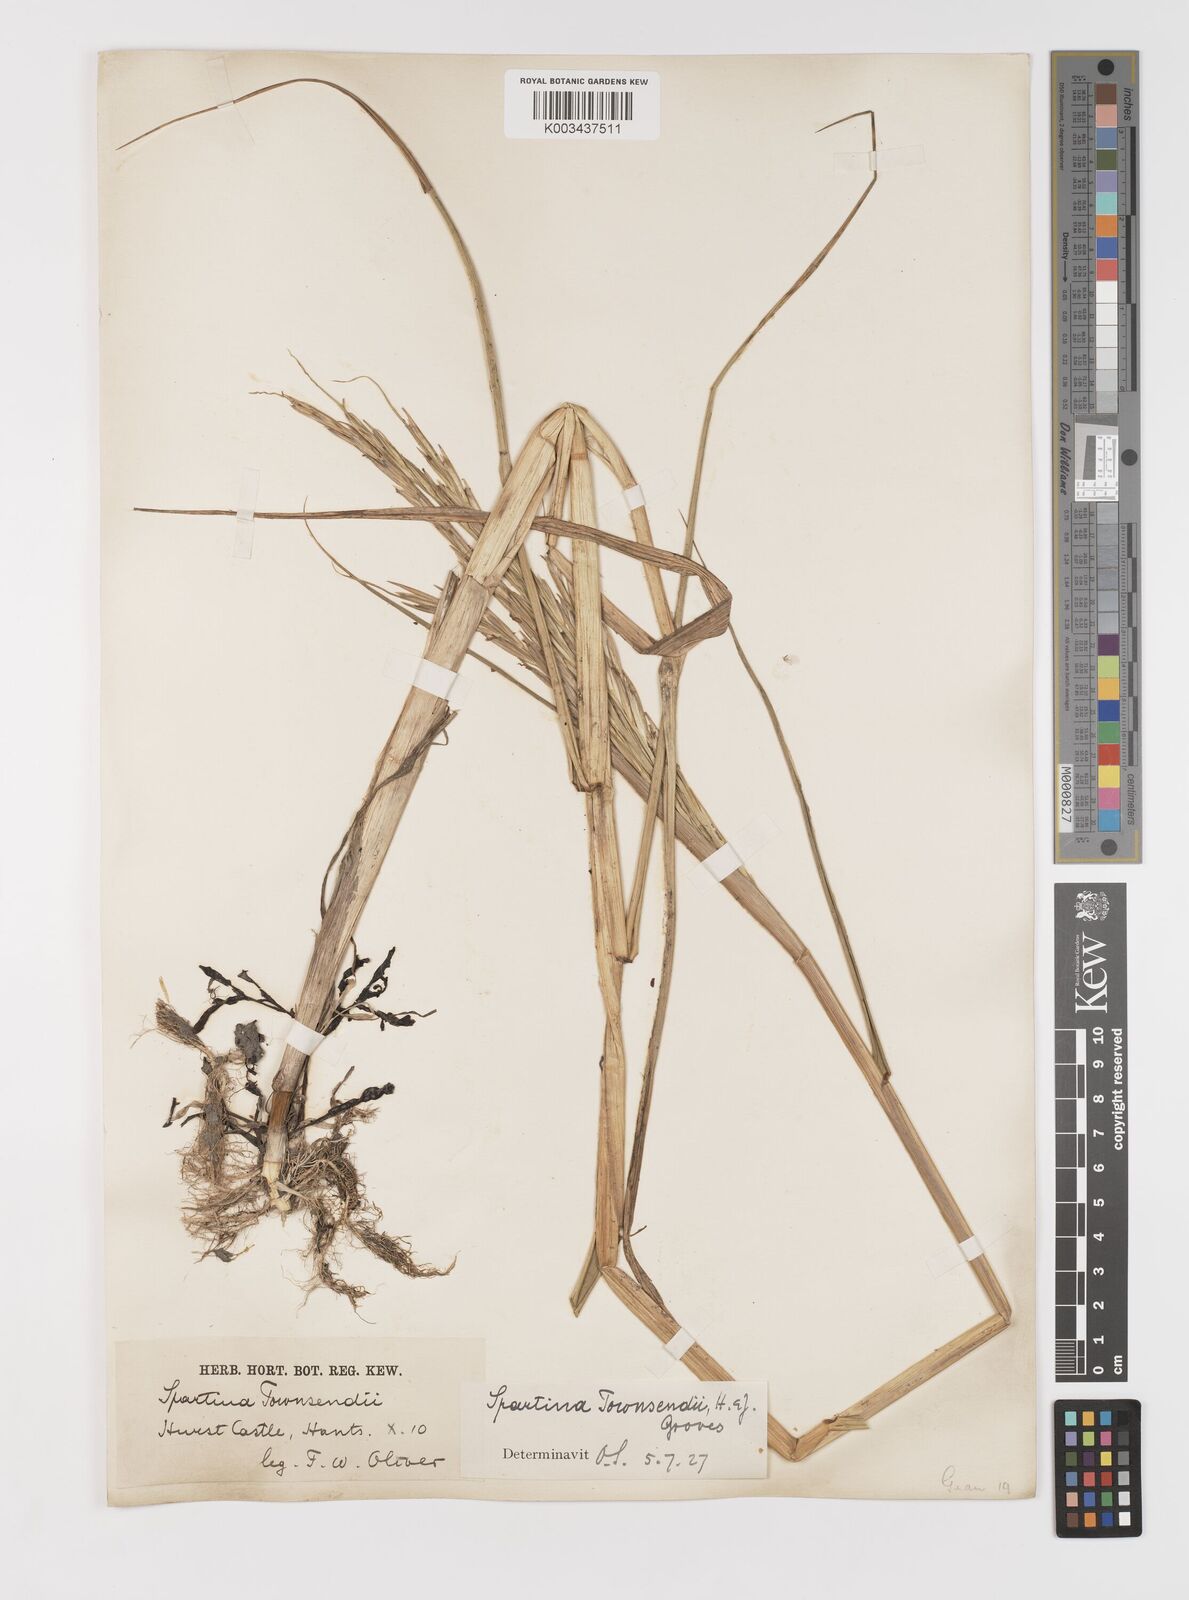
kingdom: Plantae
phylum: Tracheophyta
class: Liliopsida
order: Poales
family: Poaceae
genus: Sporobolus
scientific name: Sporobolus anglicus
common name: English cordgrass
